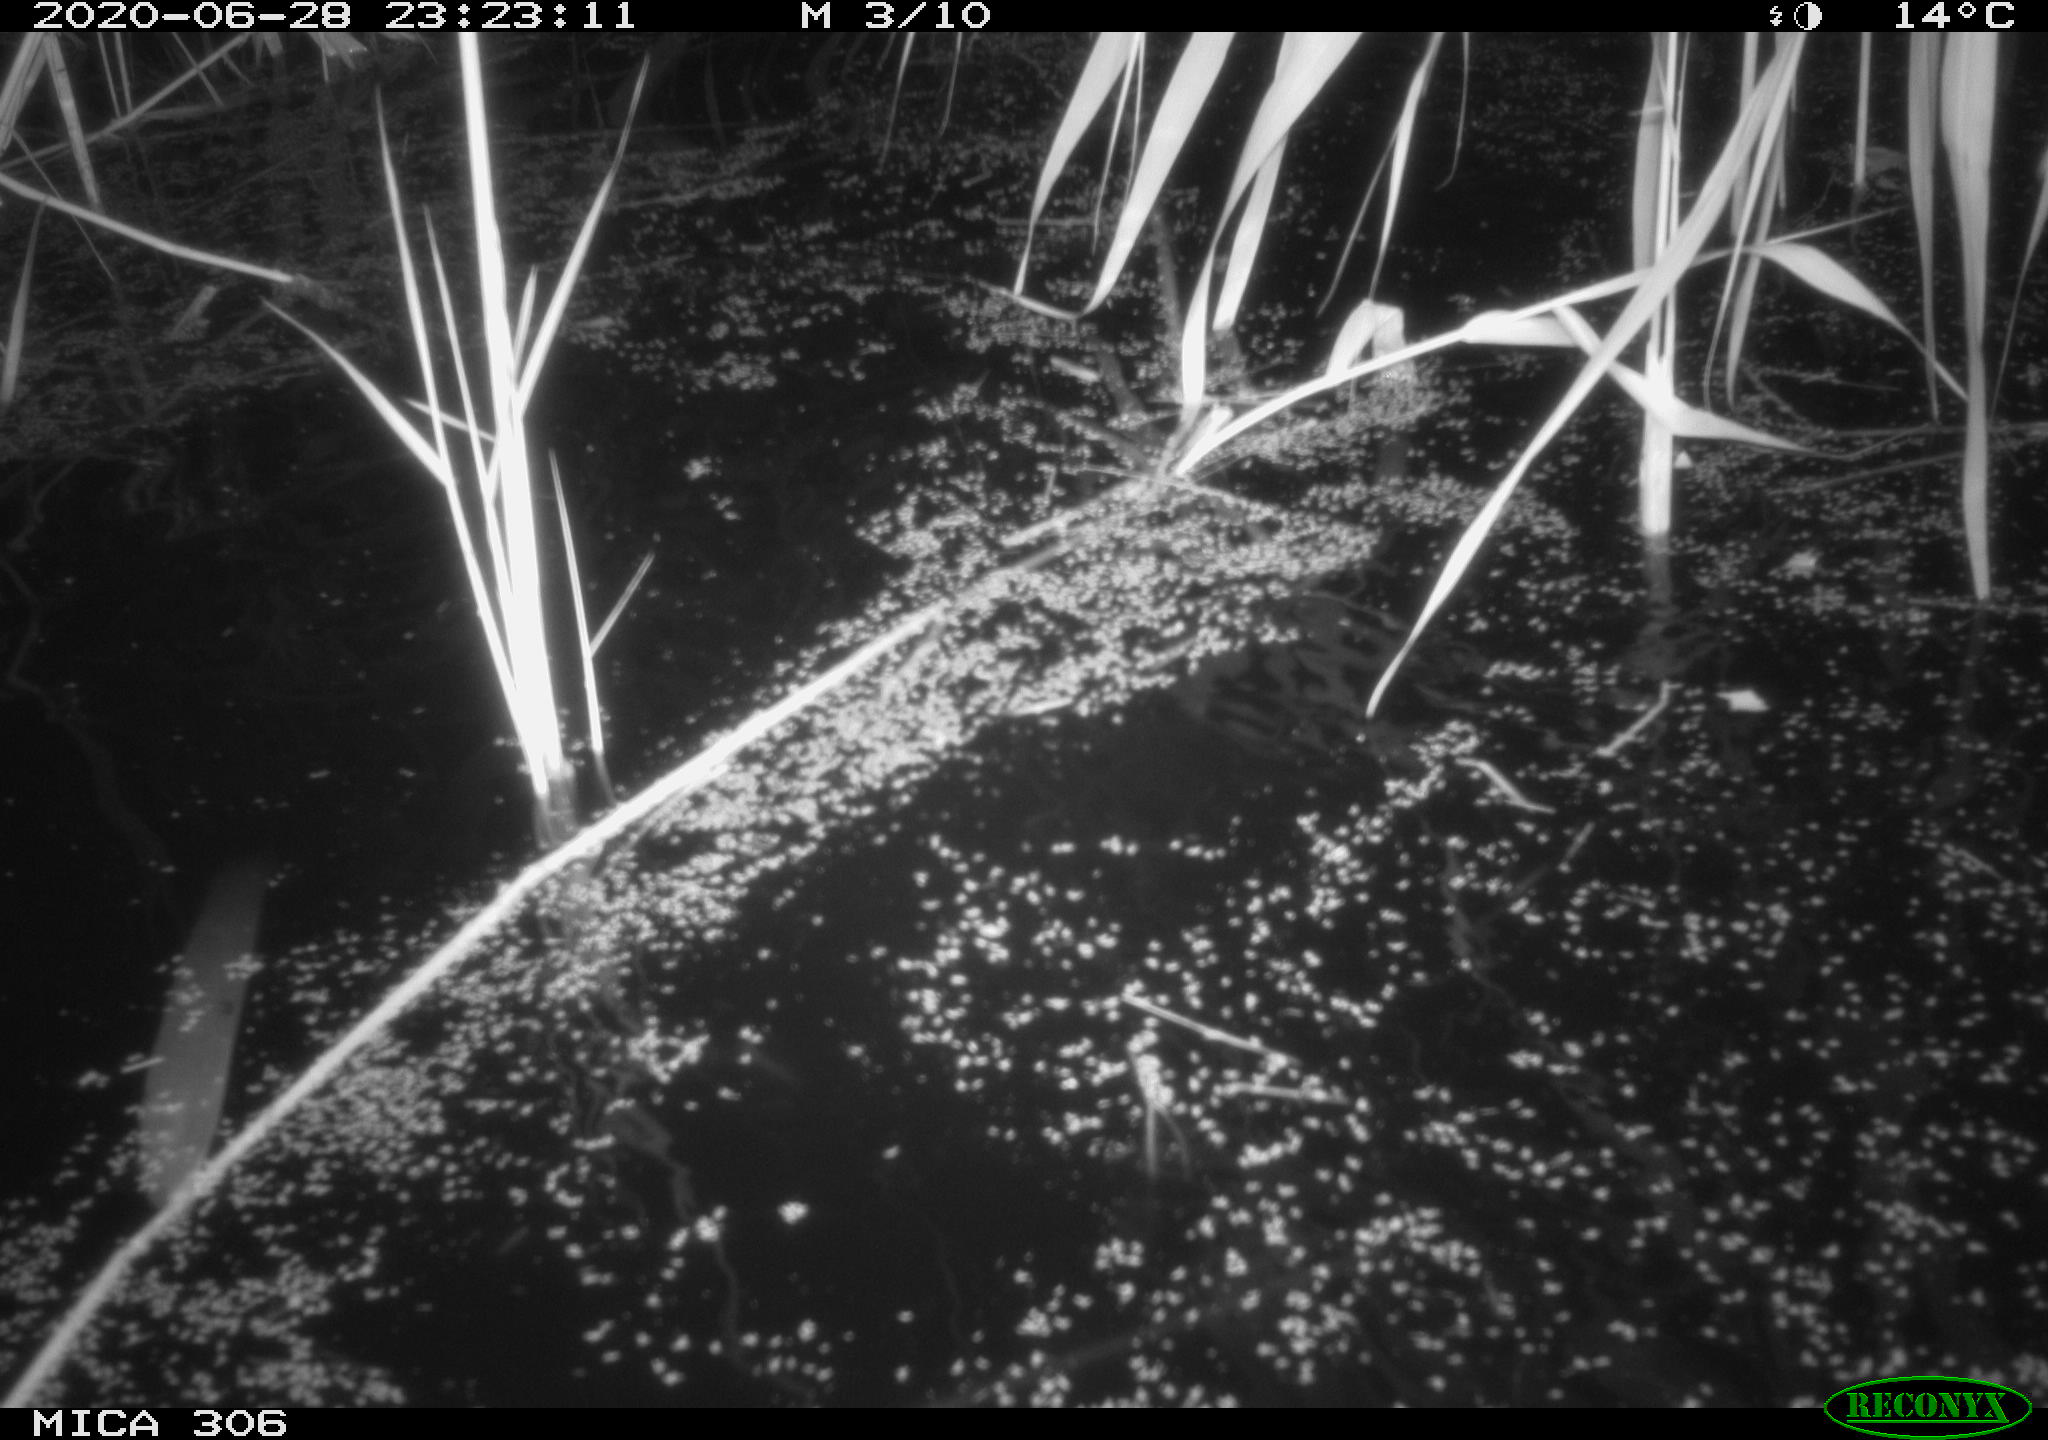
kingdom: Animalia
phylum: Chordata
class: Mammalia
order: Rodentia
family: Muridae
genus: Rattus
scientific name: Rattus norvegicus
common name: Brown rat
